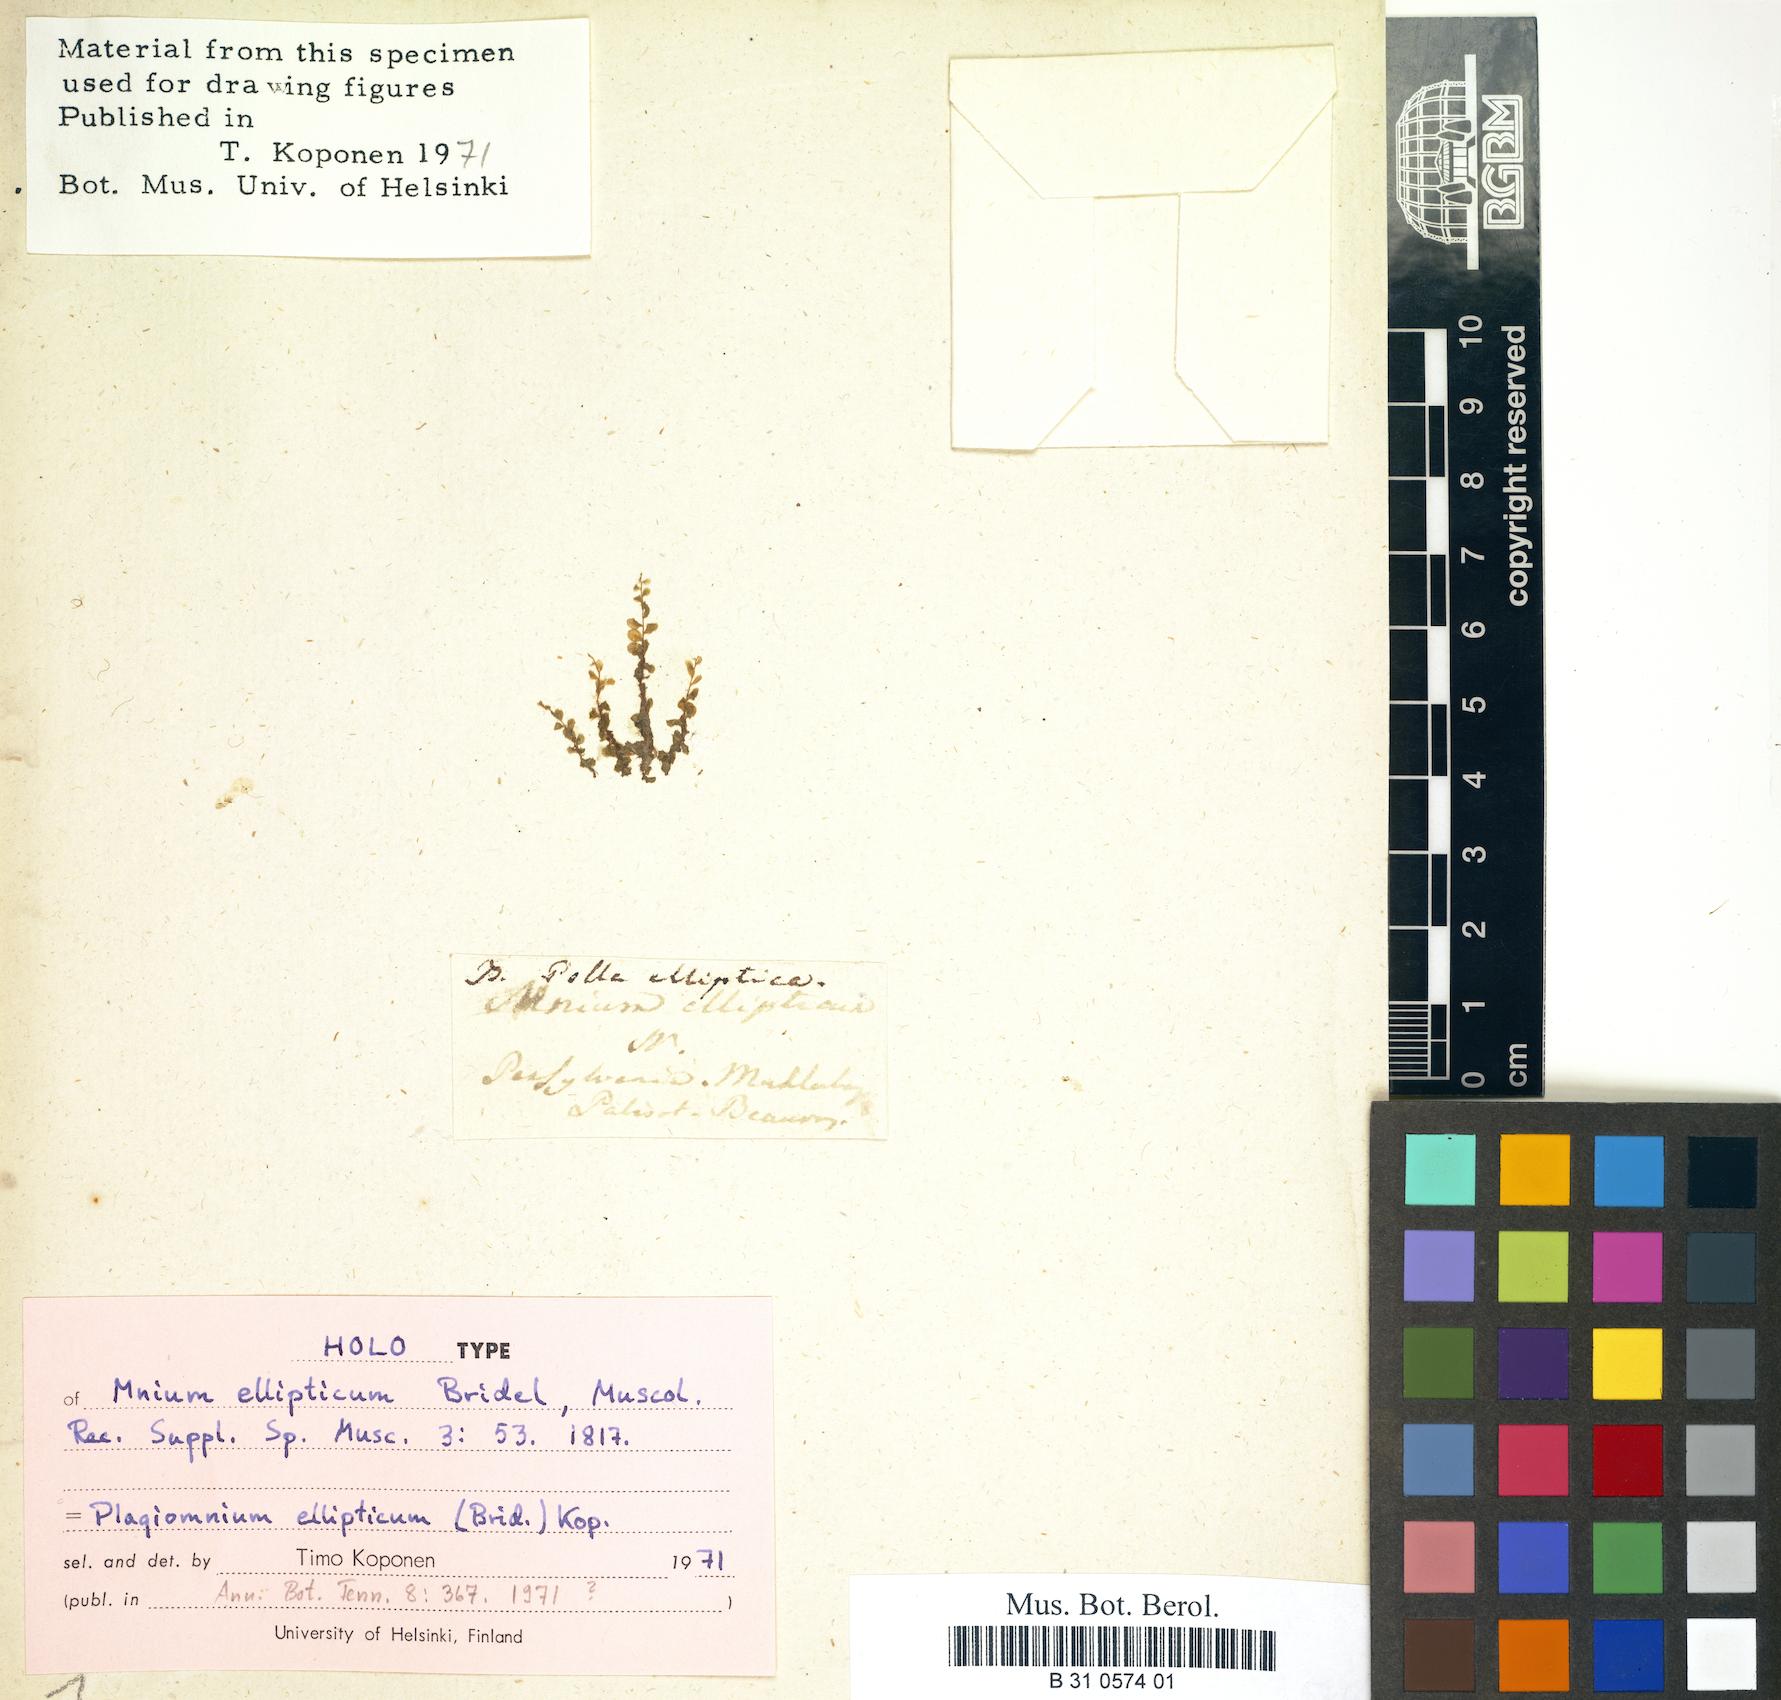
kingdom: Plantae
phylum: Bryophyta
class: Bryopsida
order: Bryales
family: Mniaceae
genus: Plagiomnium
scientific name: Plagiomnium ellipticum
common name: Marsh leafy moss
